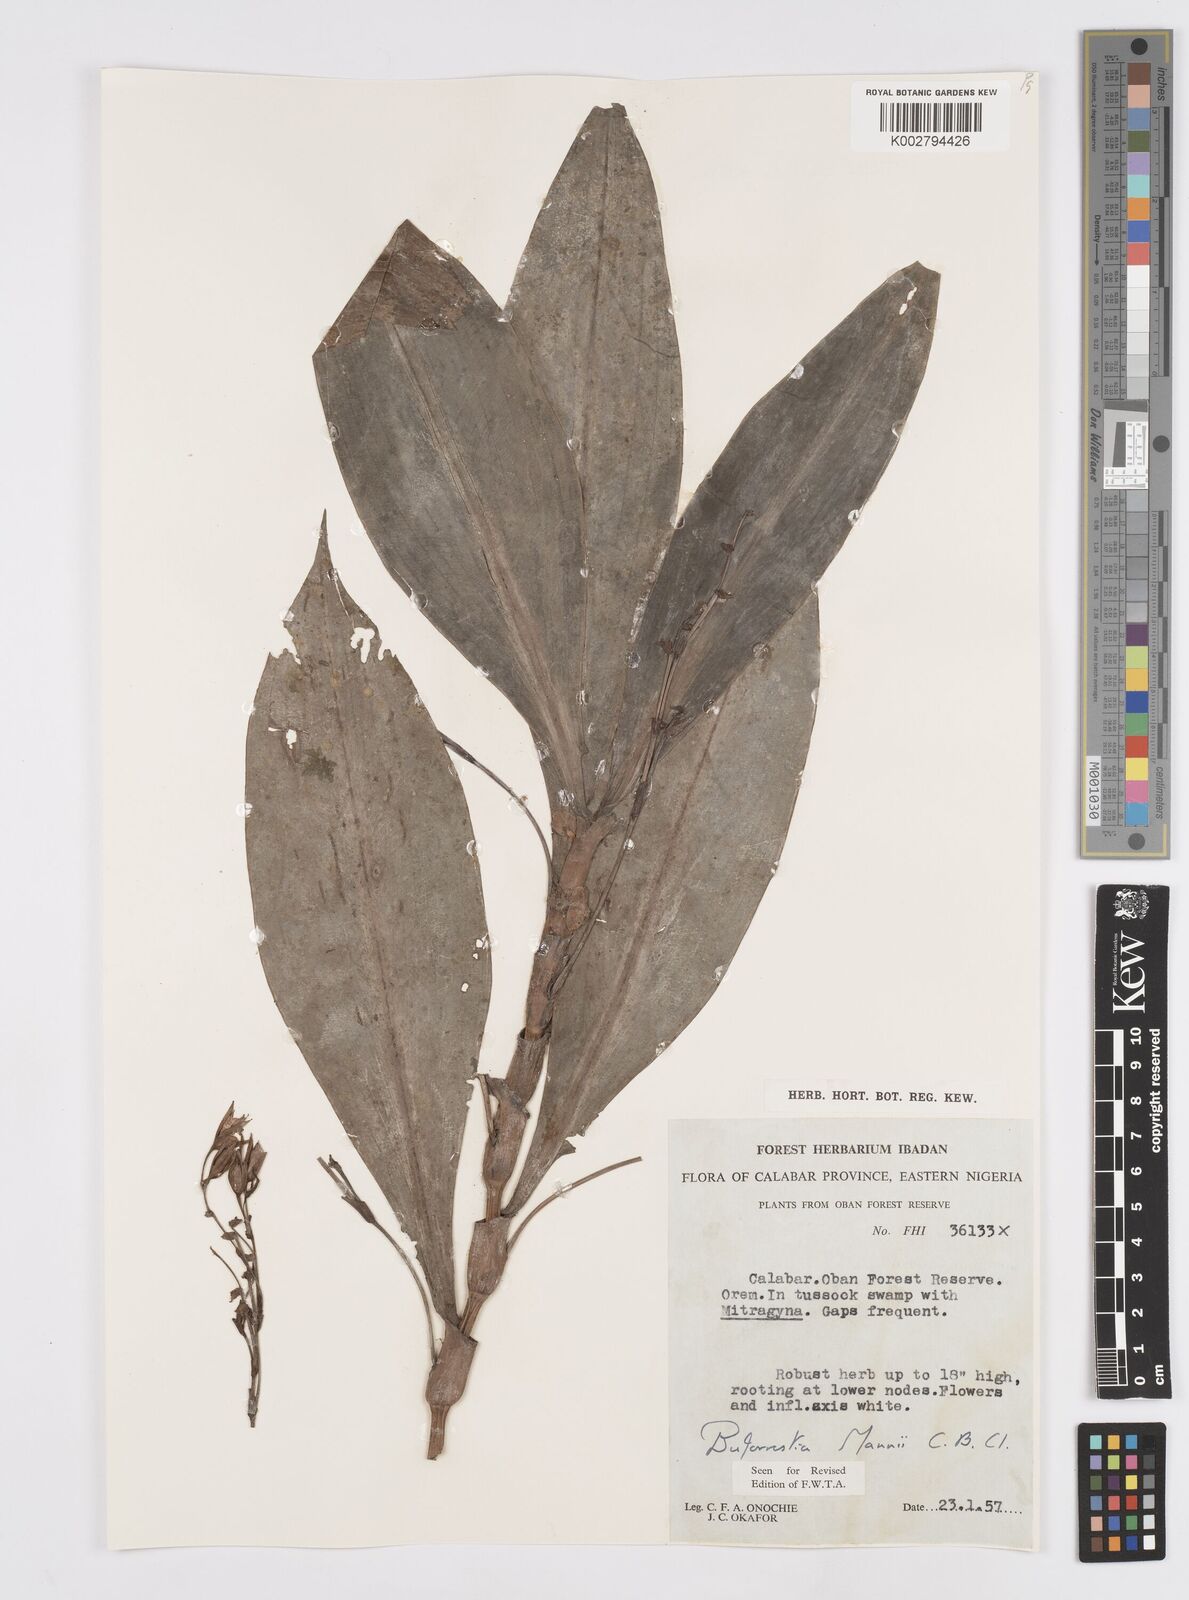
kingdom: Plantae
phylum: Tracheophyta
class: Liliopsida
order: Commelinales
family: Commelinaceae
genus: Buforrestia
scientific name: Buforrestia mannii
